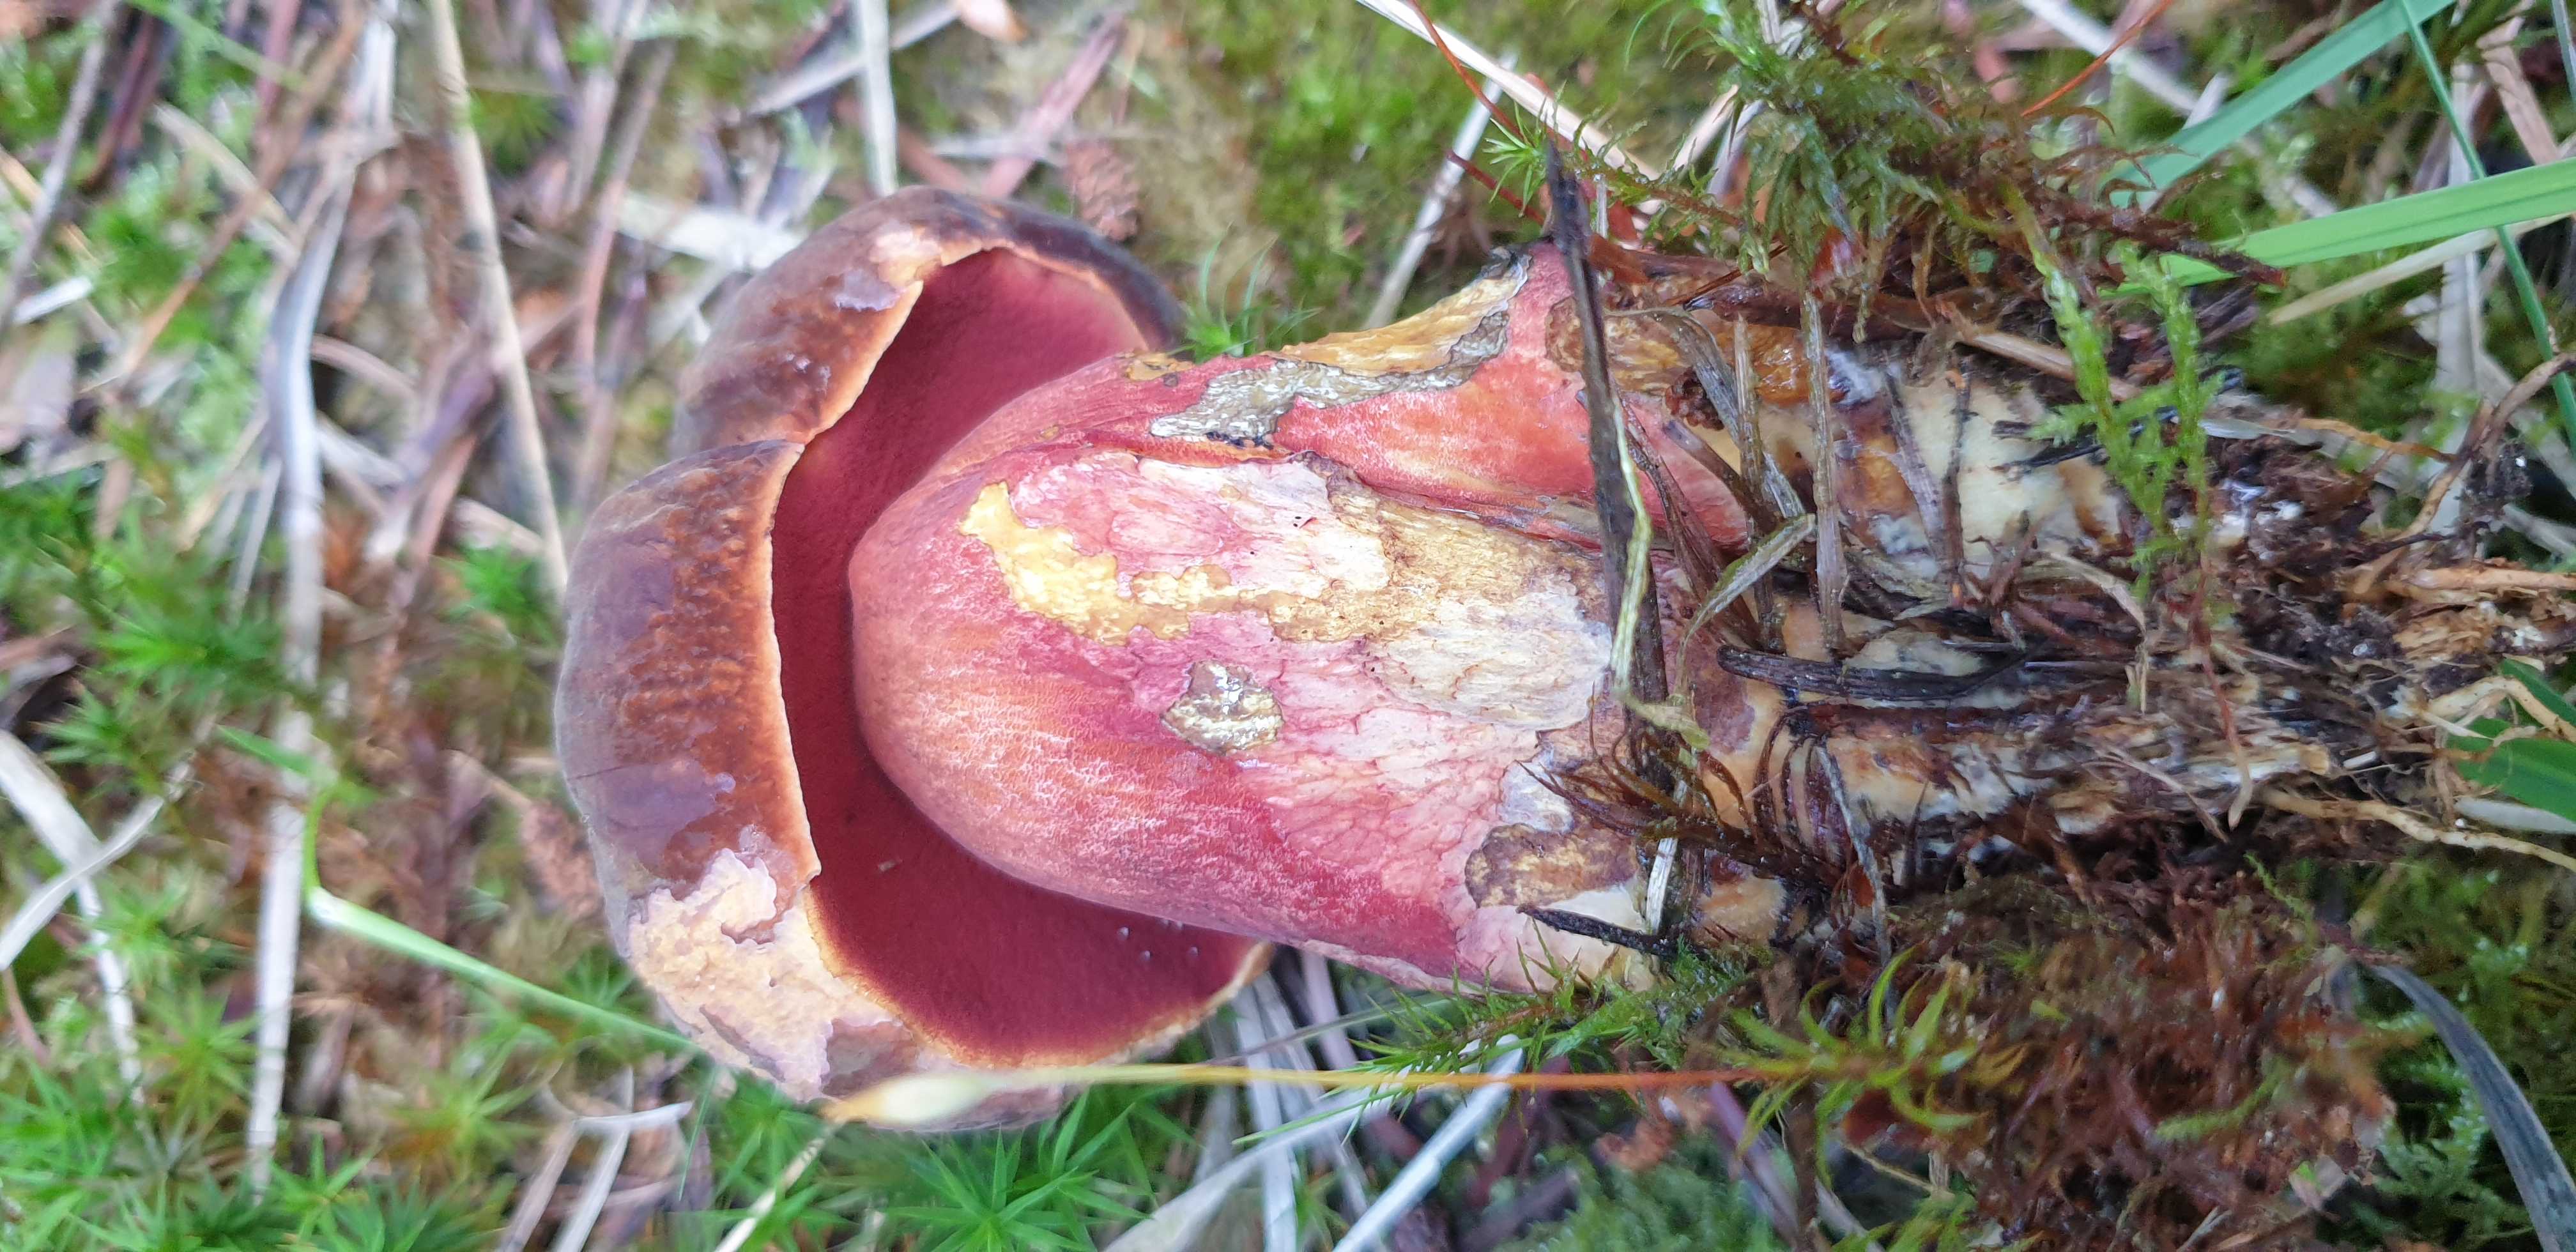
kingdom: Fungi
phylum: Basidiomycota
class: Agaricomycetes
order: Boletales
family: Boletaceae
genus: Neoboletus
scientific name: Neoboletus erythropus
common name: punktstokket indigorørhat
